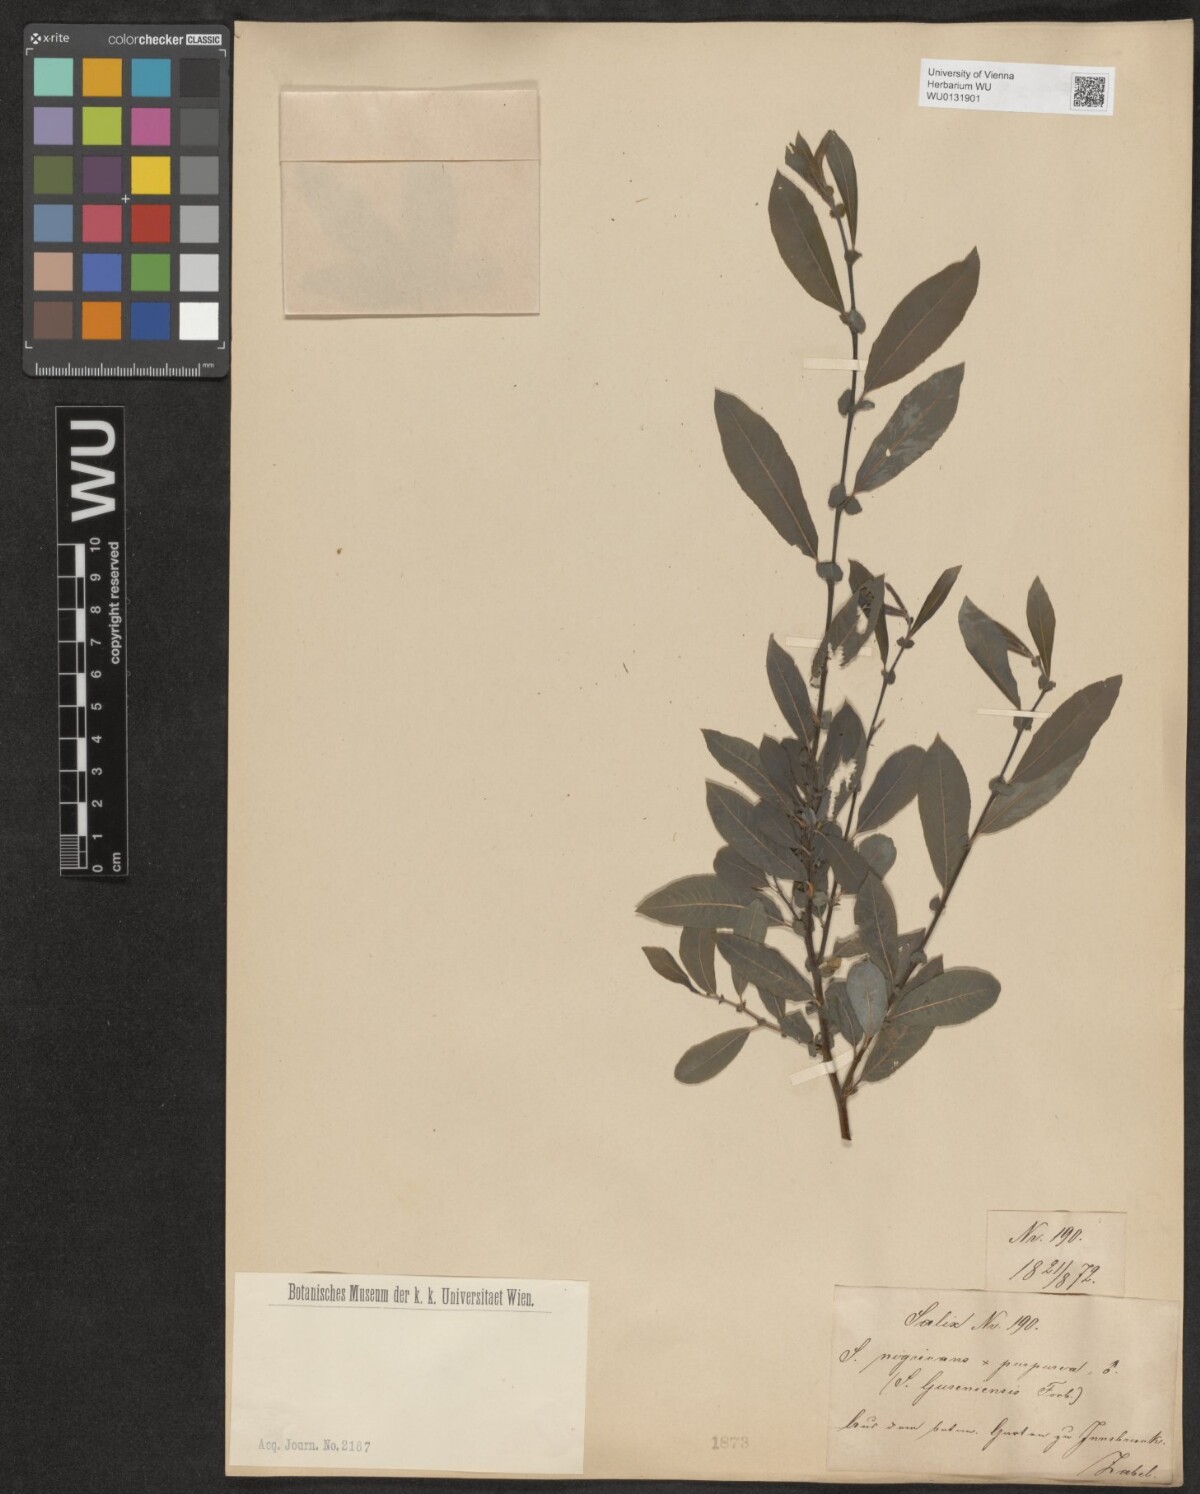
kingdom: Plantae
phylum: Tracheophyta
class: Magnoliopsida
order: Malpighiales
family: Salicaceae
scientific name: Salicaceae
